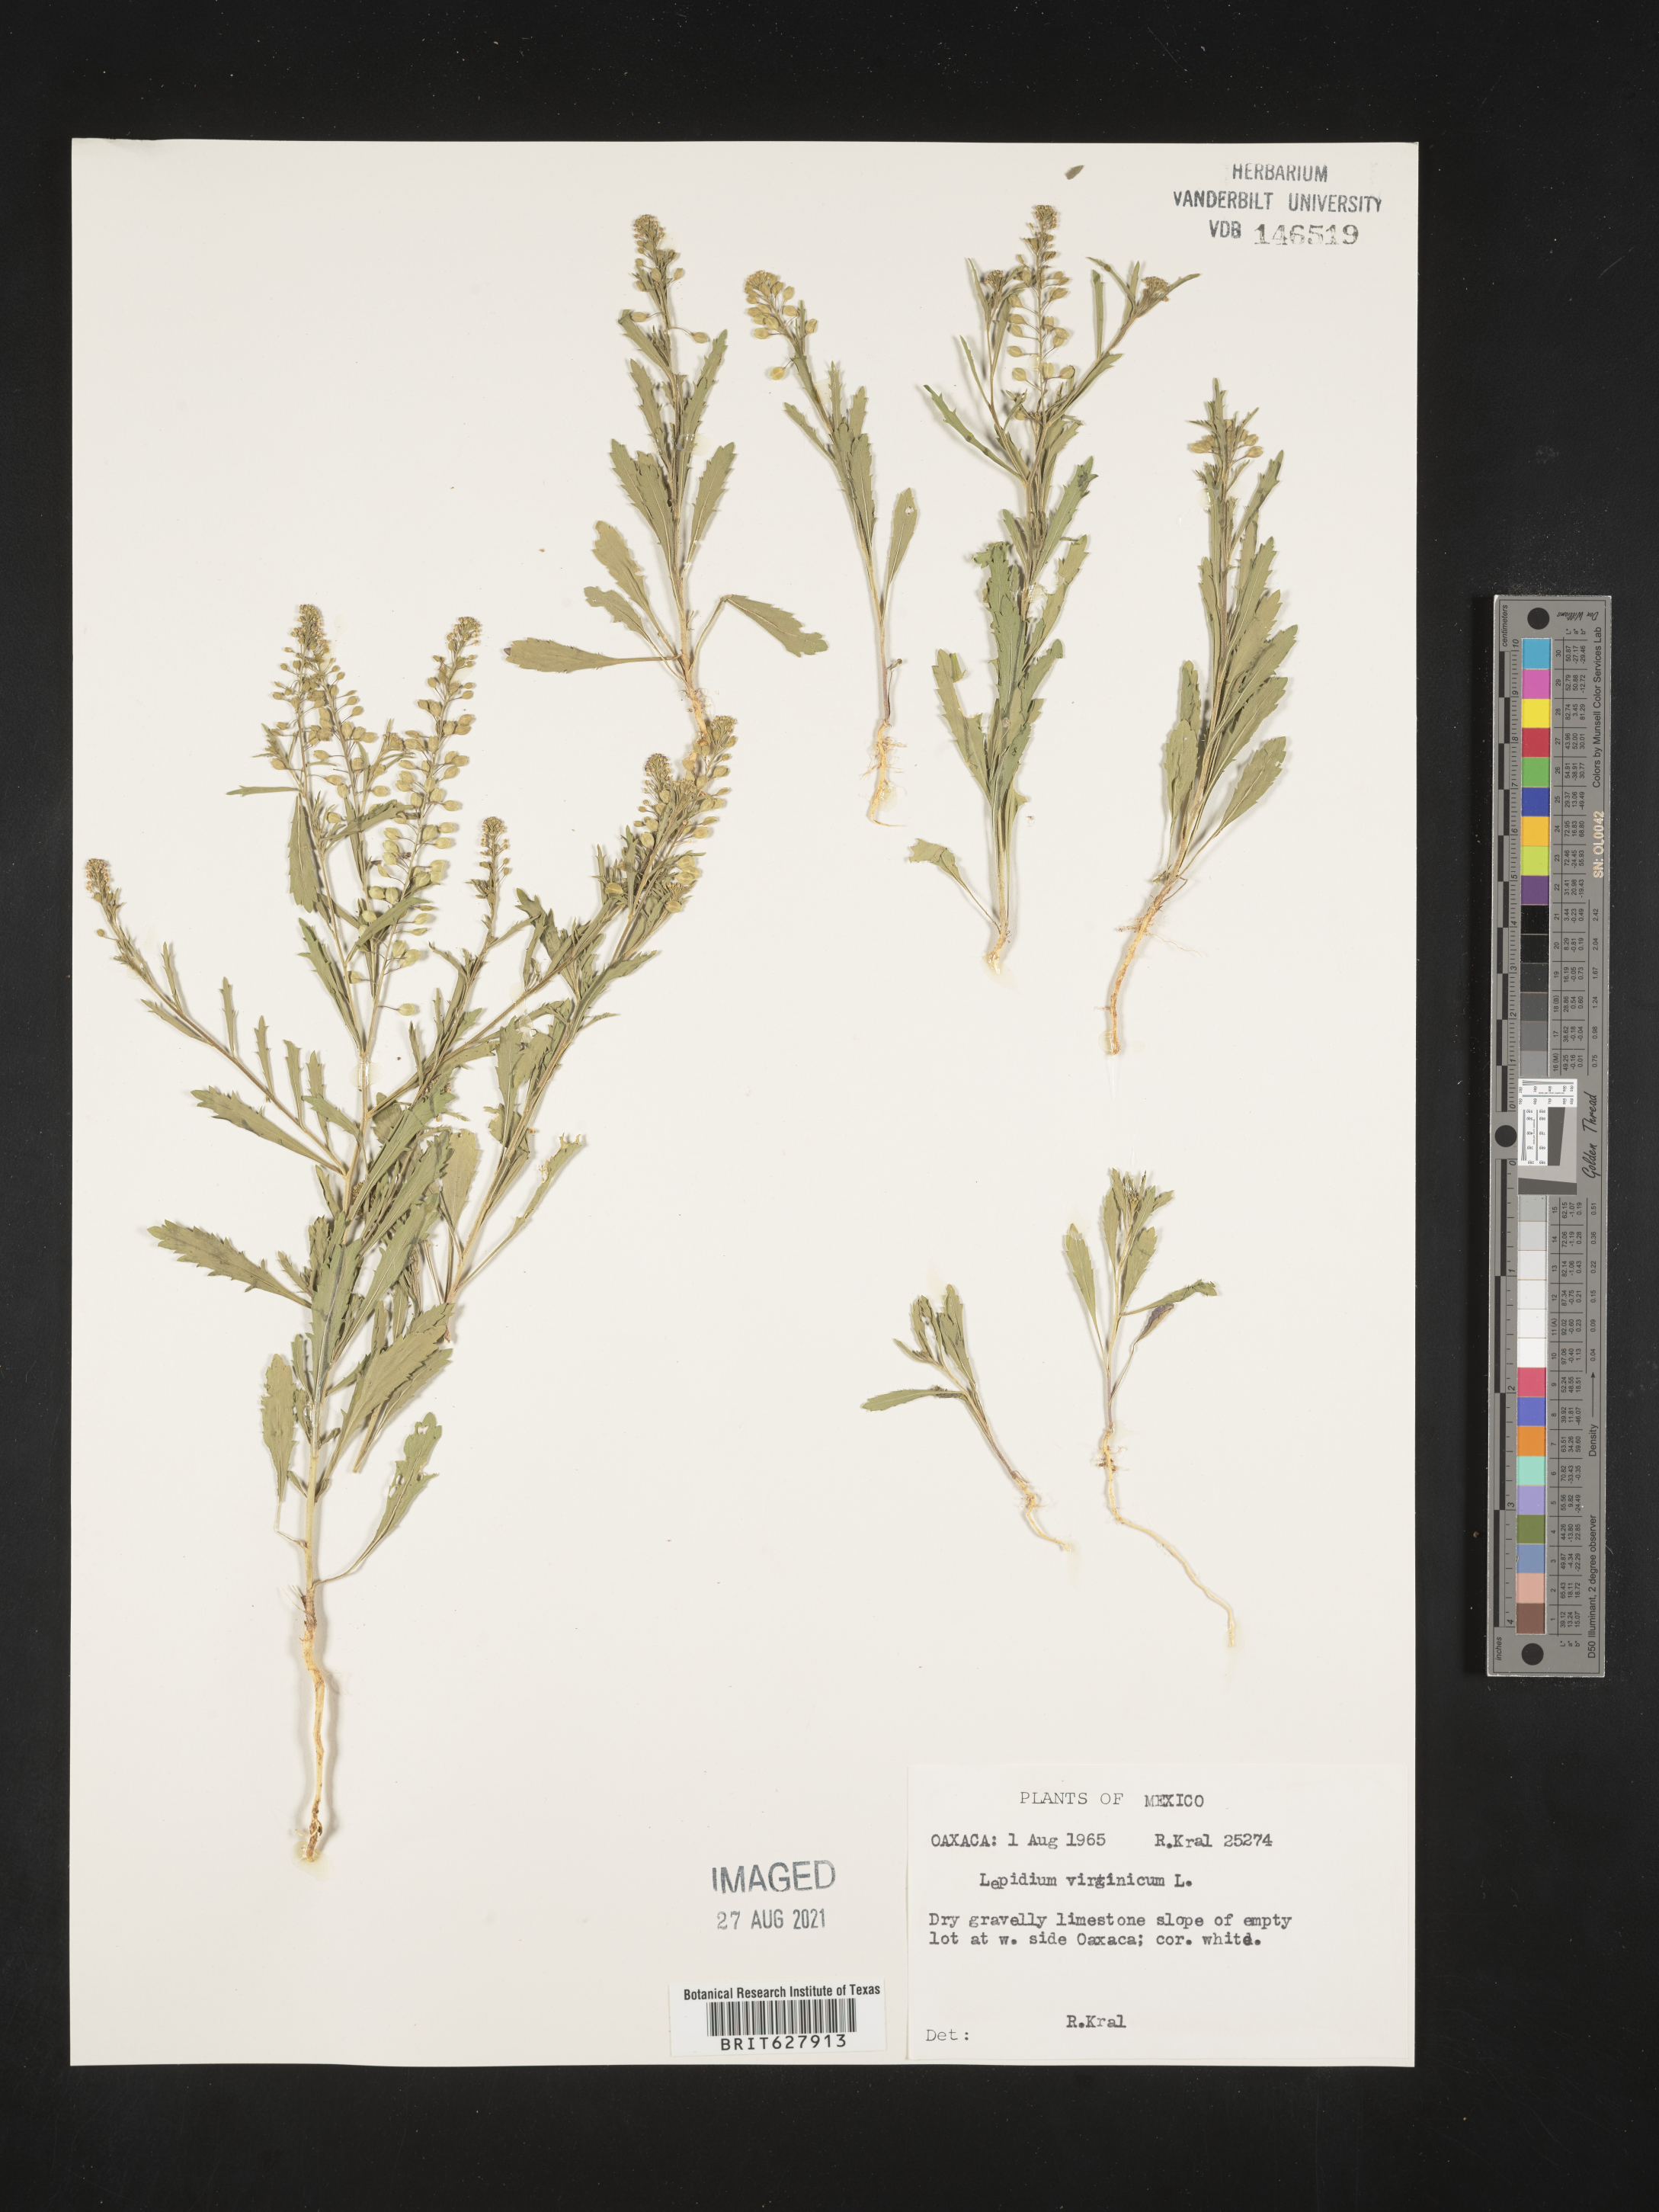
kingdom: Plantae
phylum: Tracheophyta
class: Magnoliopsida
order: Brassicales
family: Brassicaceae
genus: Lepidium
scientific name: Lepidium
